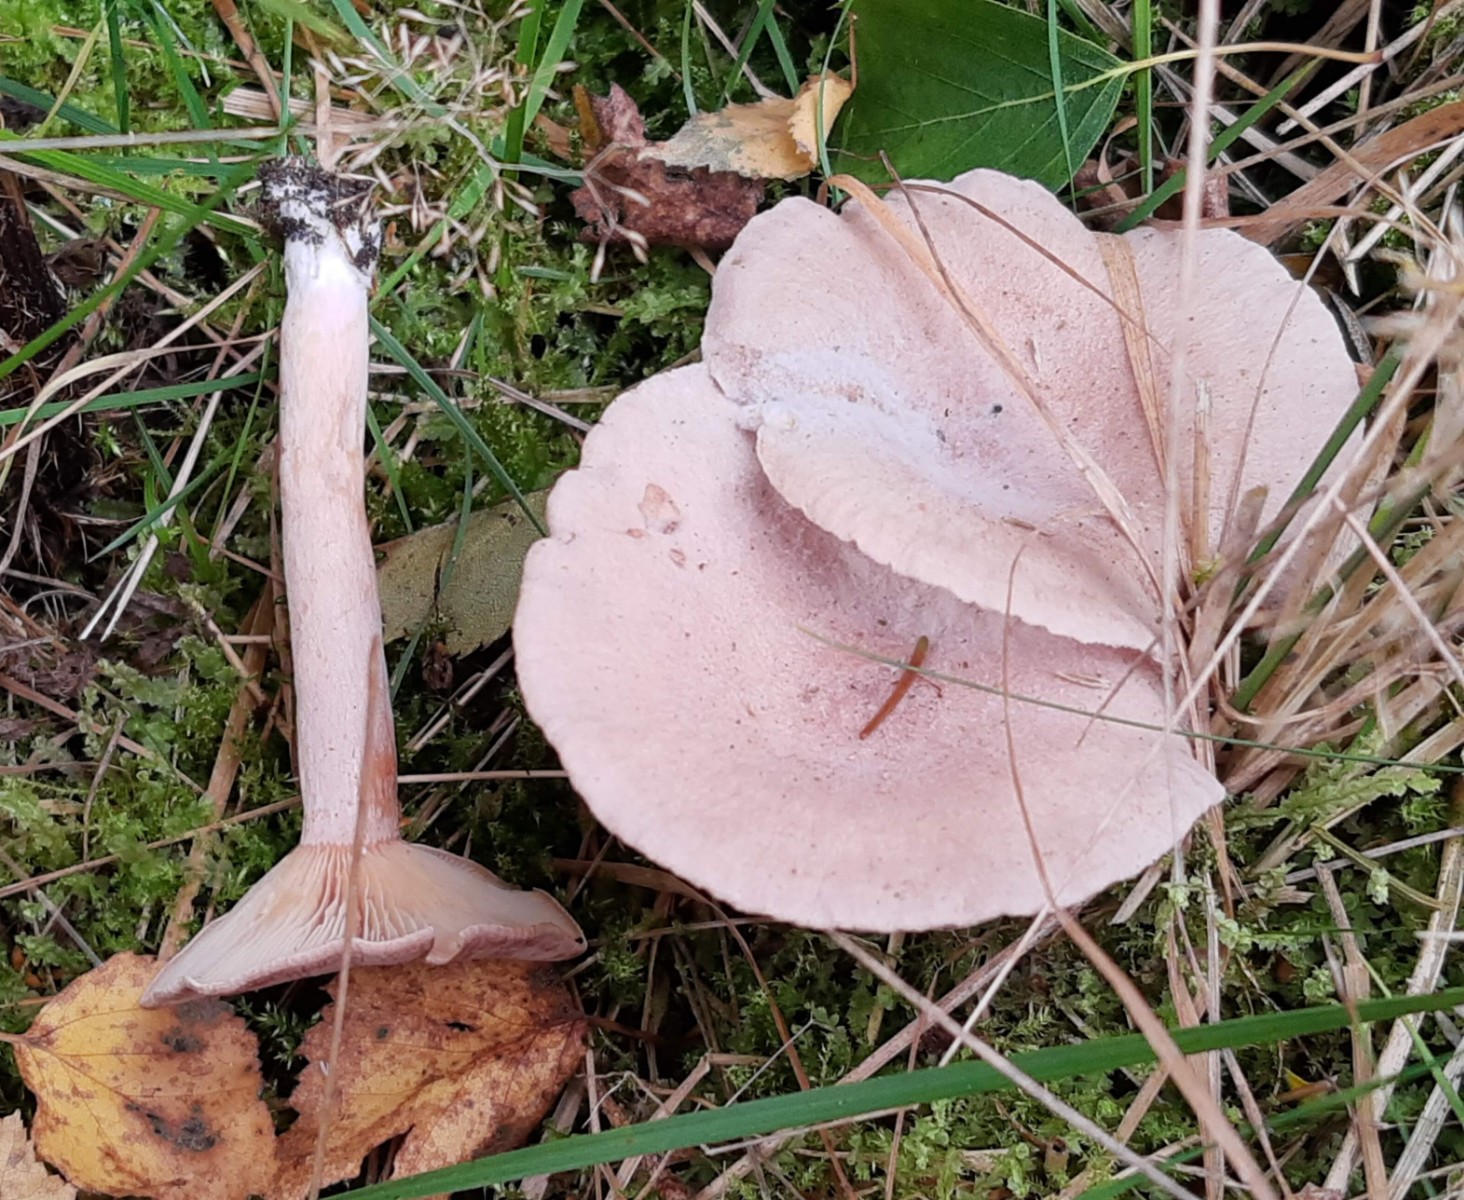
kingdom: Fungi
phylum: Basidiomycota
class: Agaricomycetes
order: Russulales
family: Russulaceae
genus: Lactarius
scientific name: Lactarius glyciosmus
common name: kokos-mælkehat
